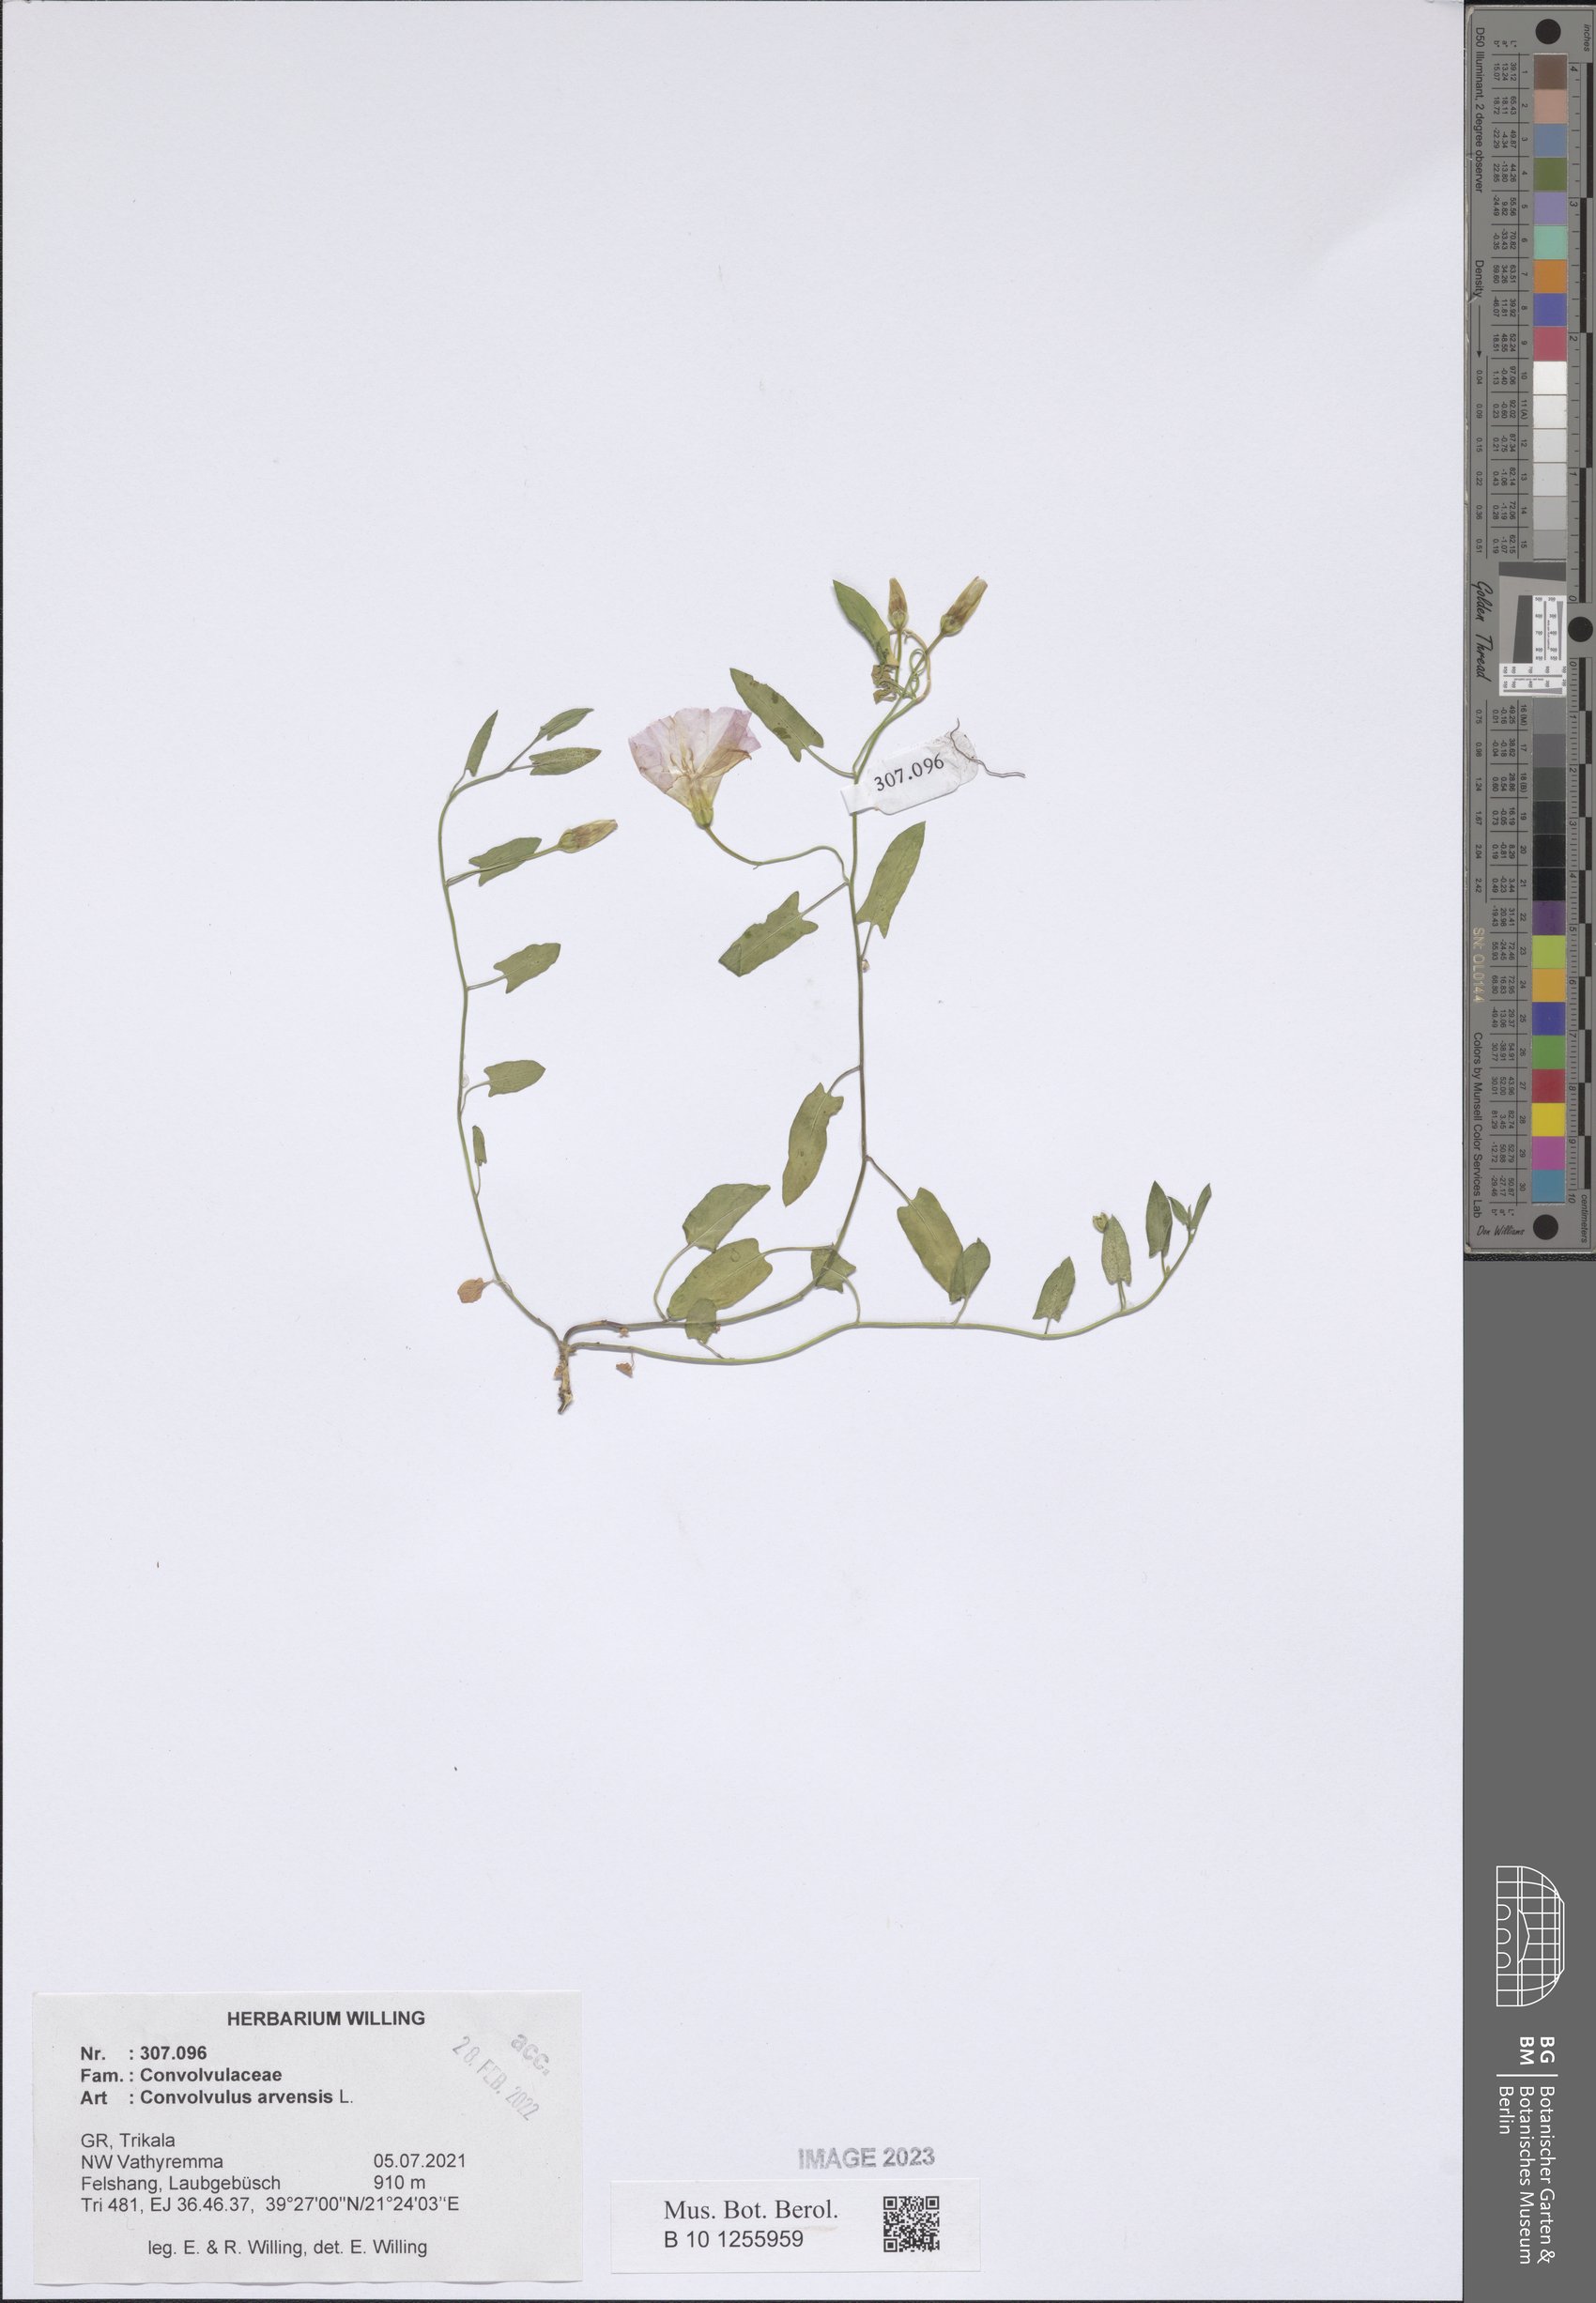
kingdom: Plantae
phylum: Tracheophyta
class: Magnoliopsida
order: Solanales
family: Convolvulaceae
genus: Convolvulus
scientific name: Convolvulus arvensis
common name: Field bindweed
